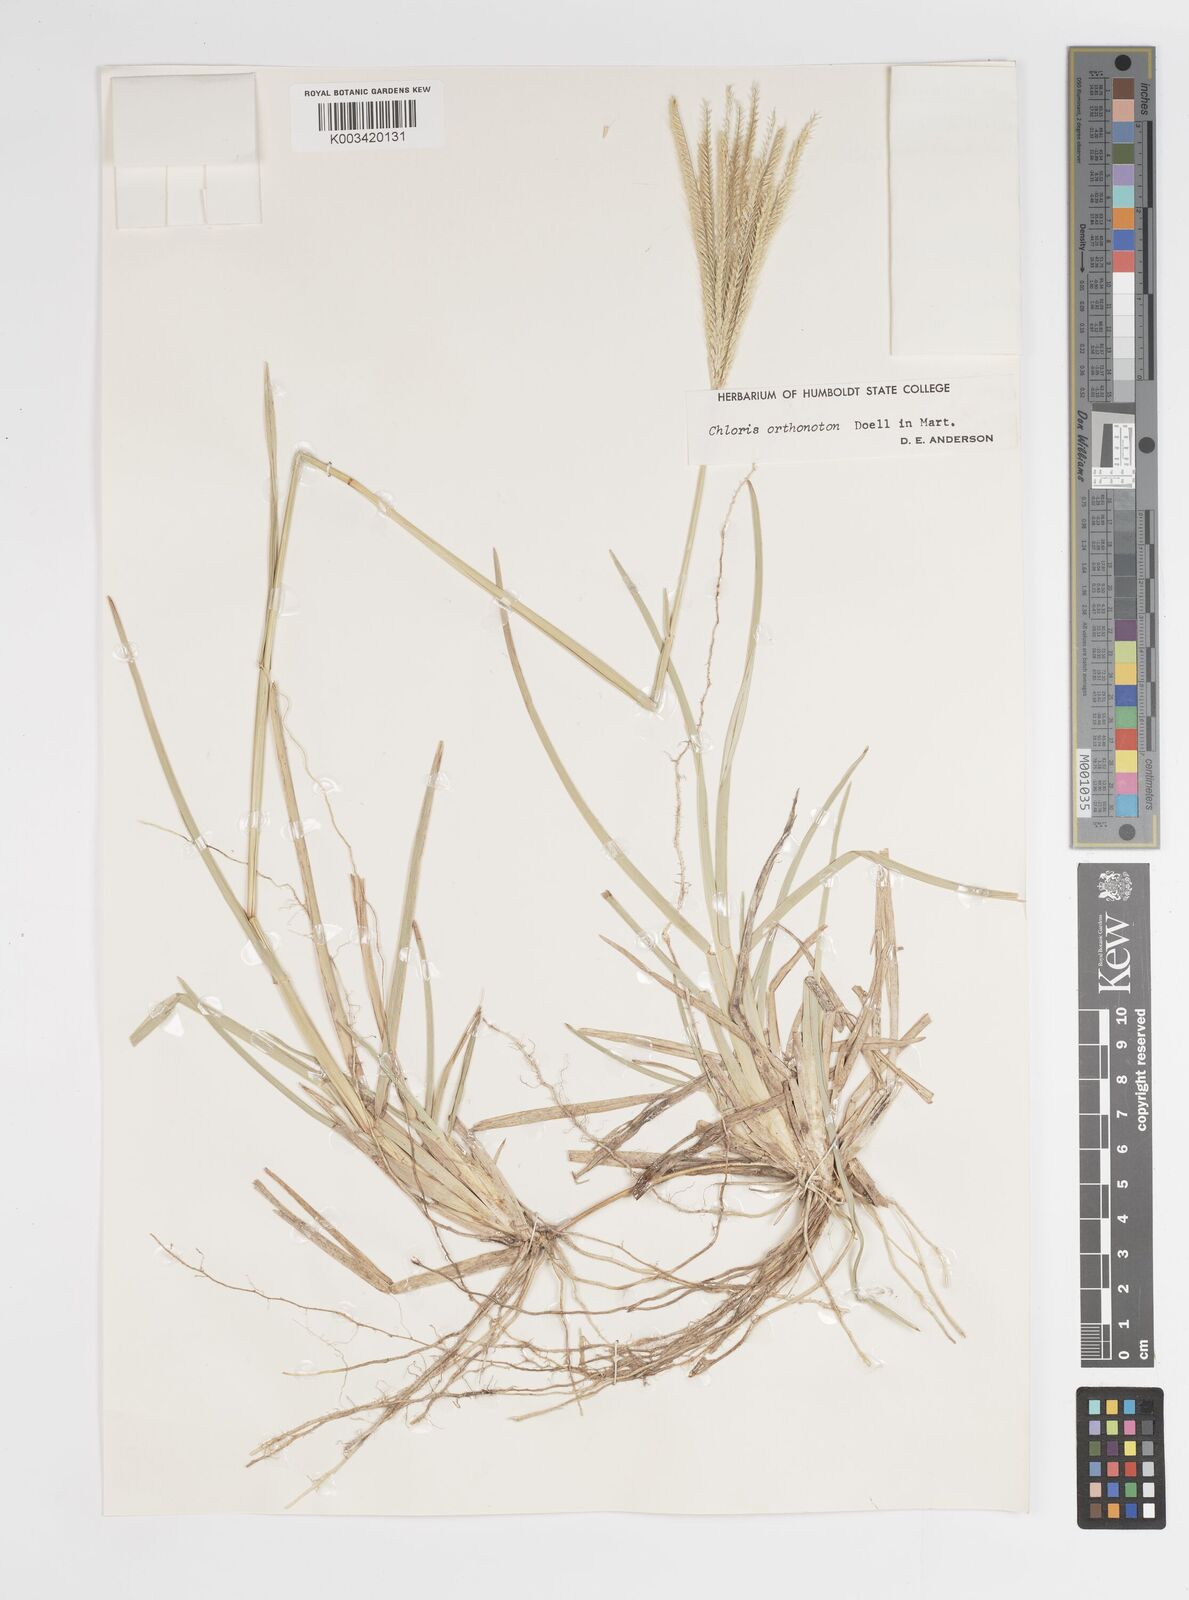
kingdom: Plantae
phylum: Tracheophyta
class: Liliopsida
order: Poales
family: Poaceae
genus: Chloris
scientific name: Chloris orthonoton
